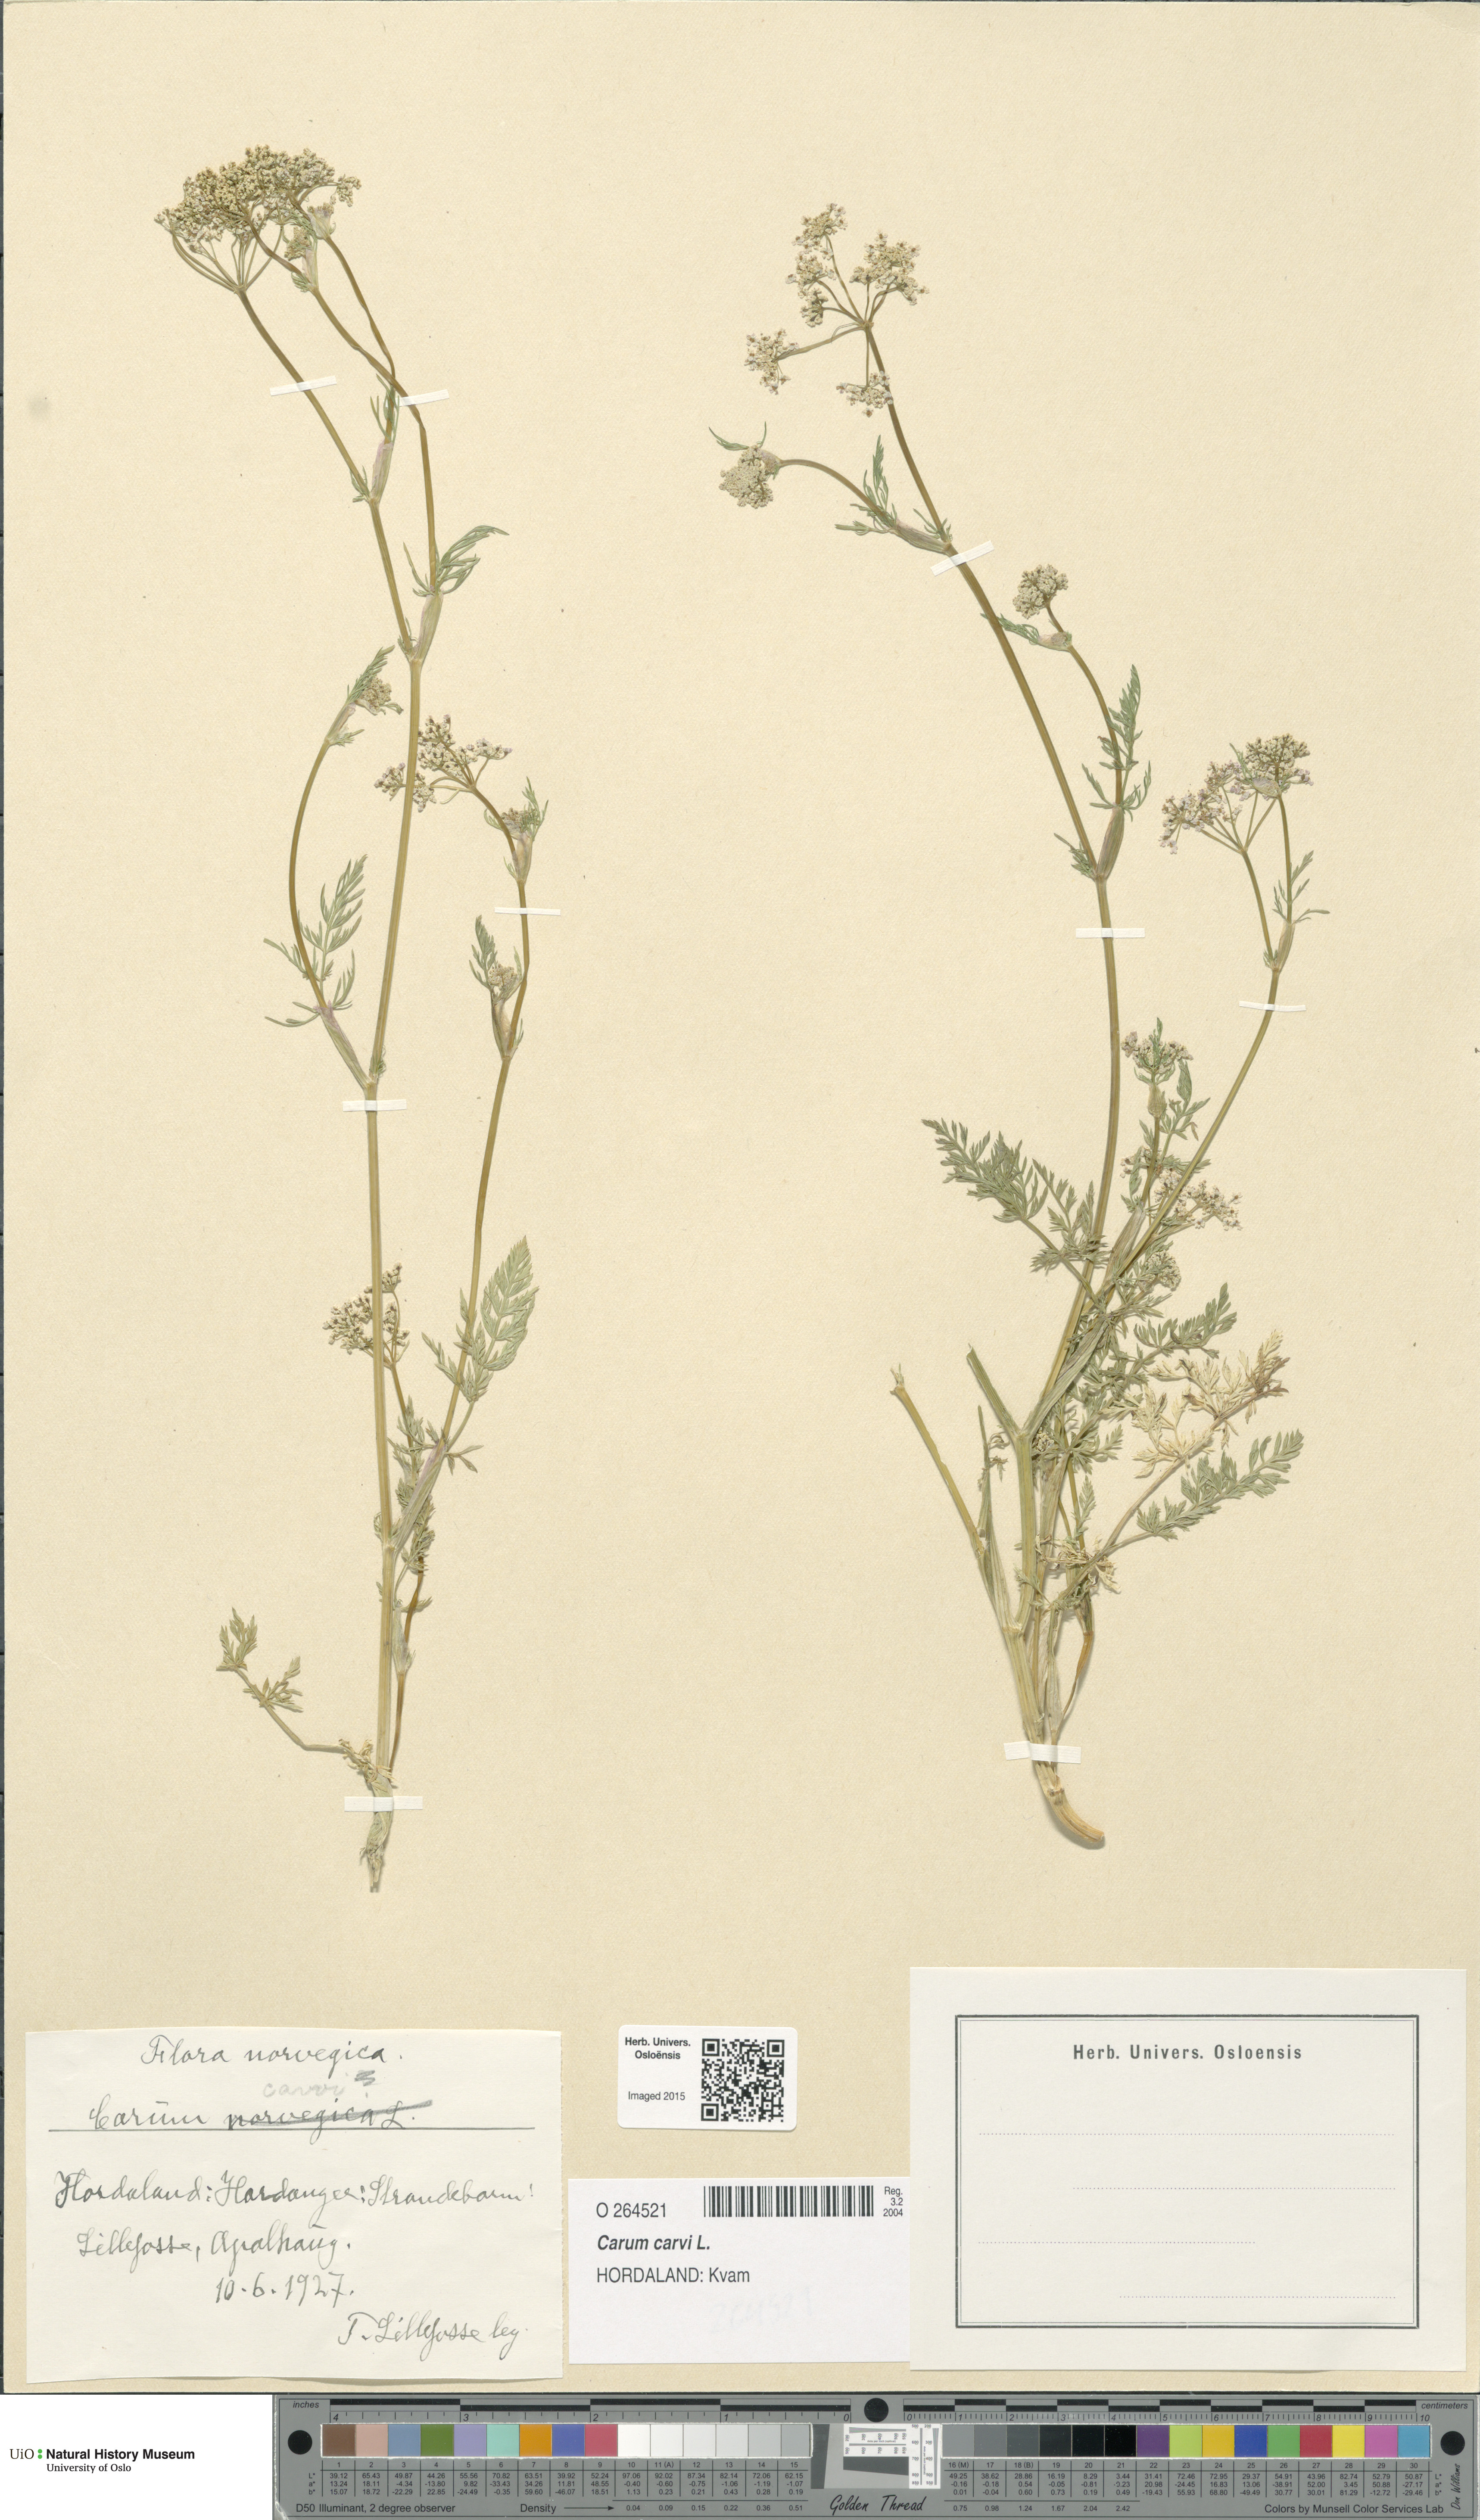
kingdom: Plantae
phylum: Tracheophyta
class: Magnoliopsida
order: Apiales
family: Apiaceae
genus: Carum
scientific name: Carum carvi
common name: Caraway
